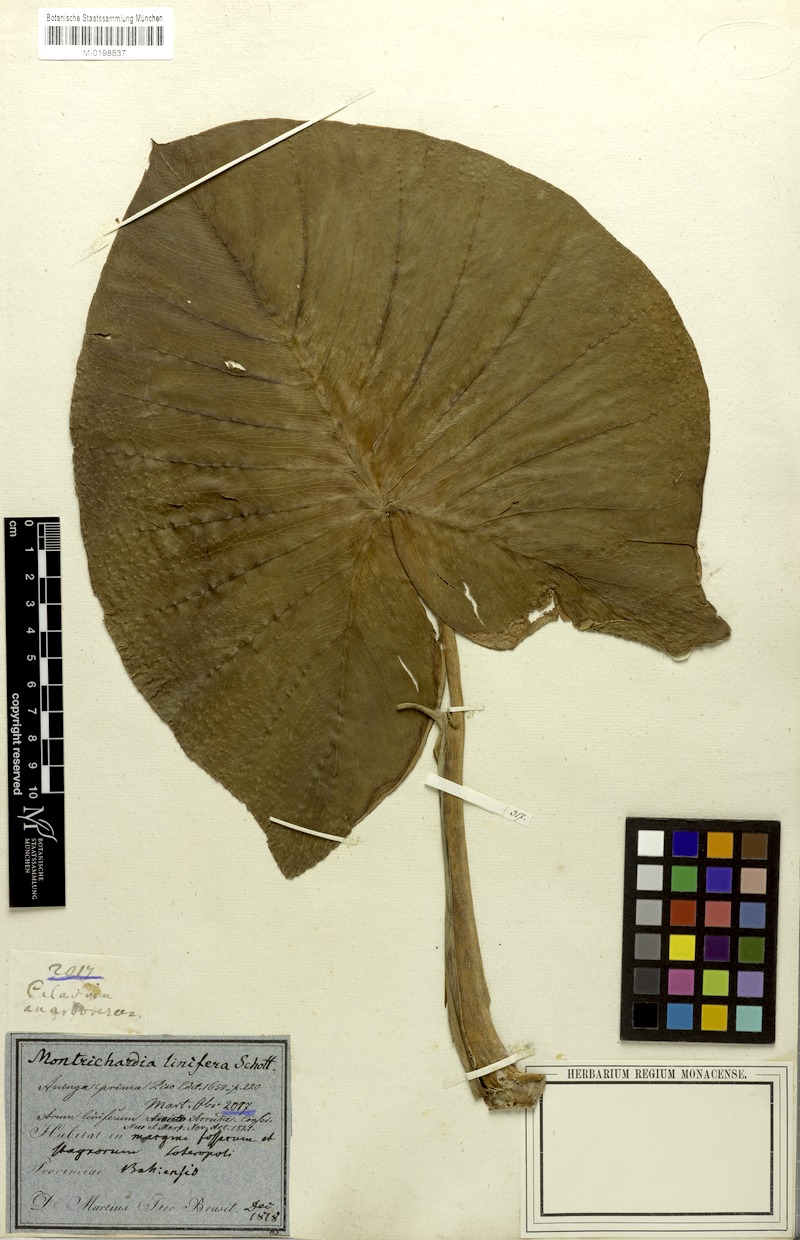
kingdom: Plantae
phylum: Tracheophyta
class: Liliopsida
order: Alismatales
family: Araceae
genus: Montrichardia
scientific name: Montrichardia linifera
